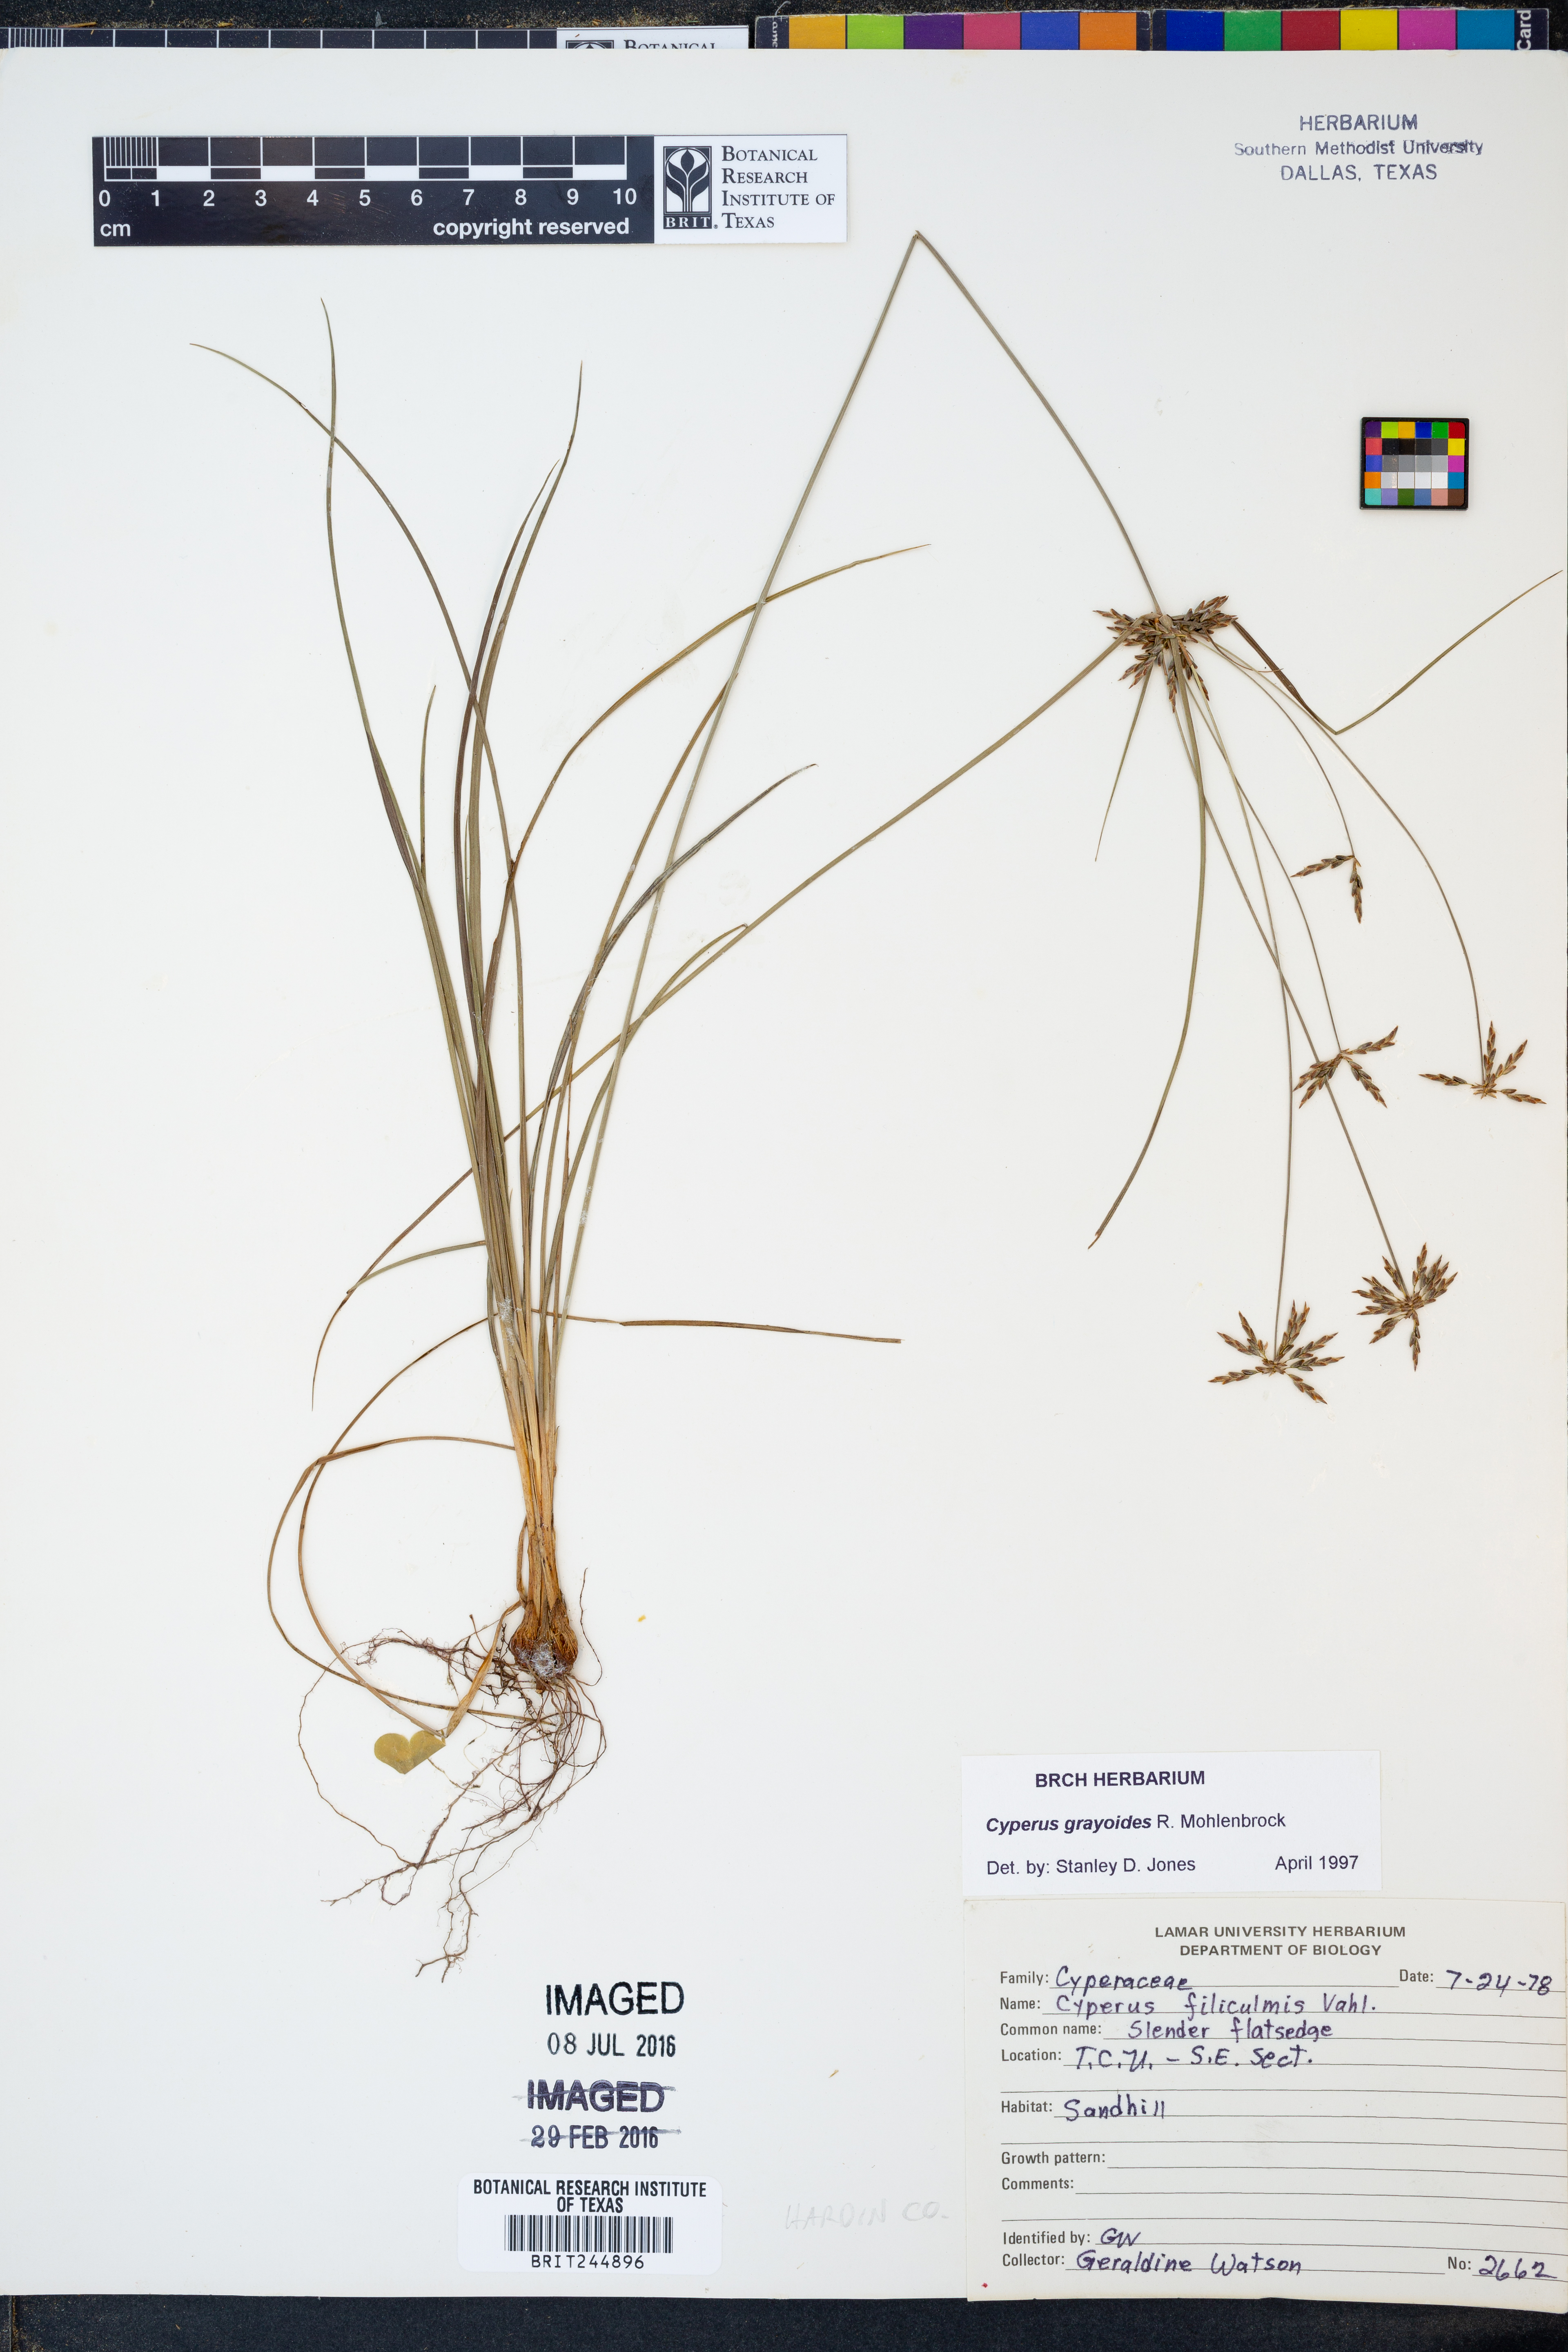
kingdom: Plantae
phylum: Tracheophyta
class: Liliopsida
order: Poales
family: Cyperaceae
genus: Cyperus
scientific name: Cyperus grayioides
